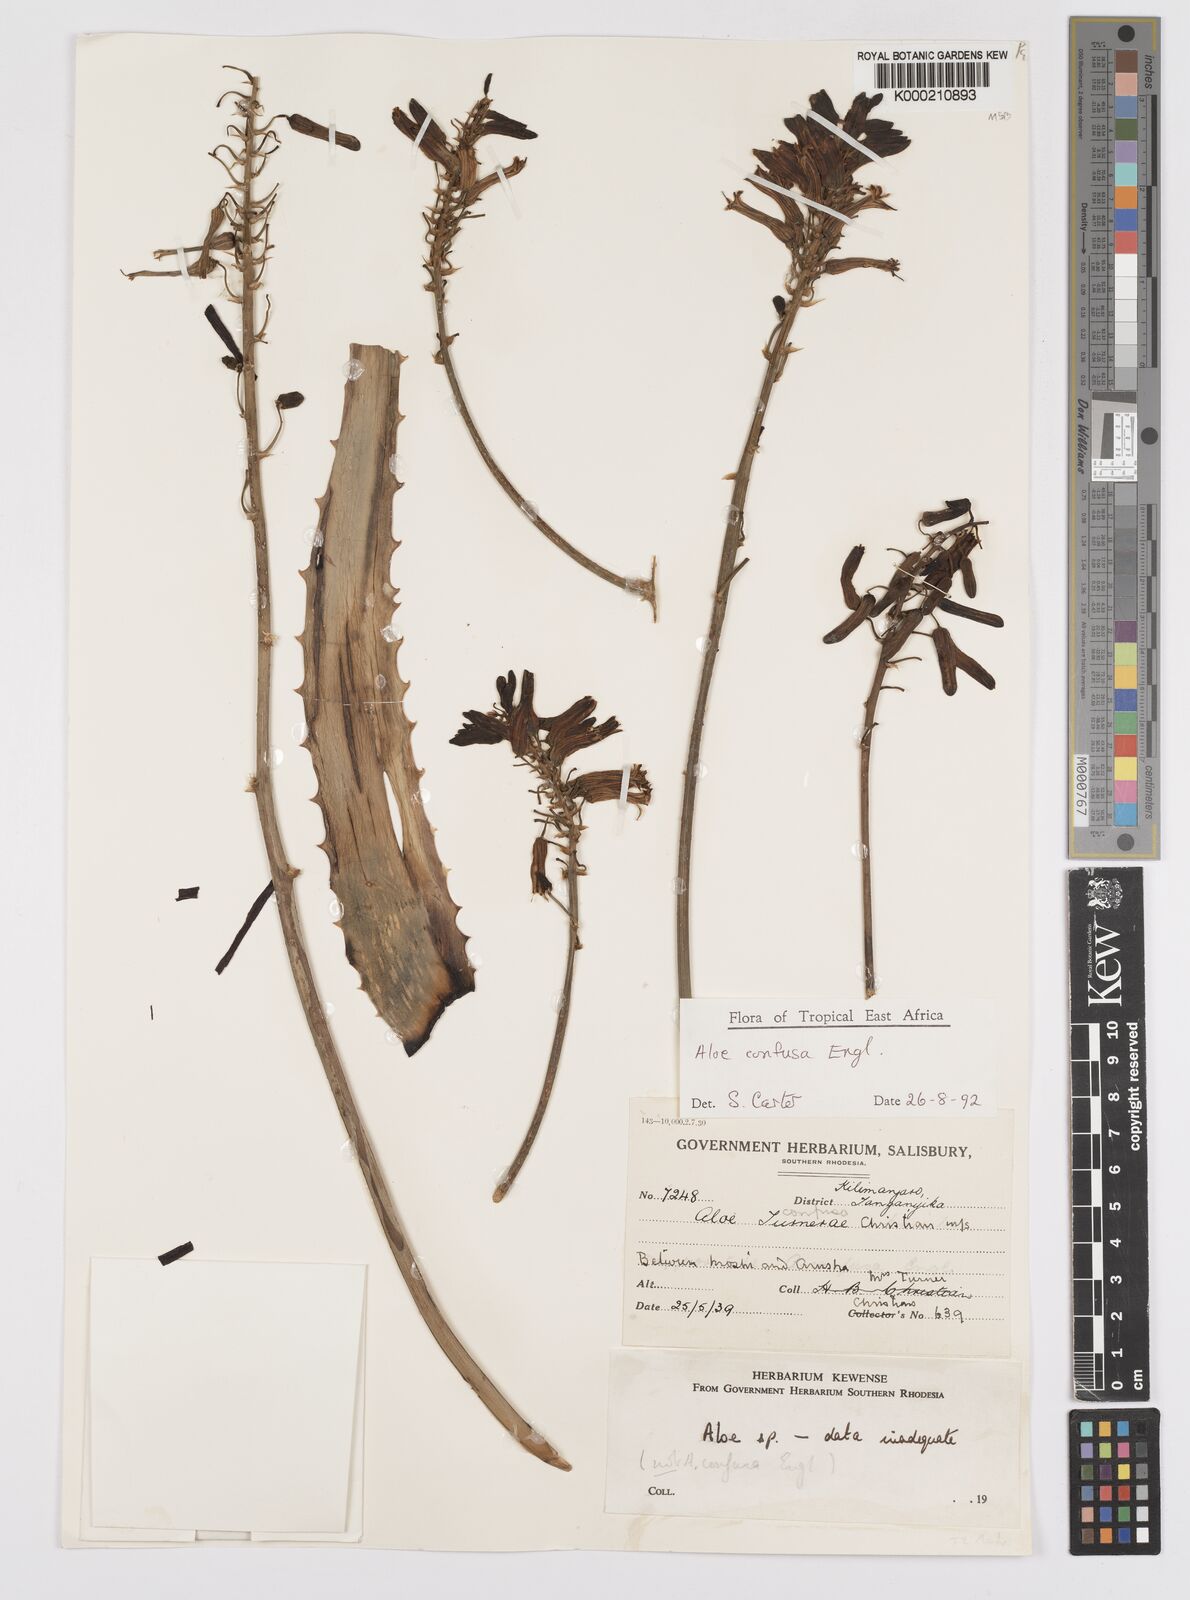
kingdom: Plantae
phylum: Tracheophyta
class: Liliopsida
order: Asparagales
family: Asphodelaceae
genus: Aloe
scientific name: Aloe confusa
